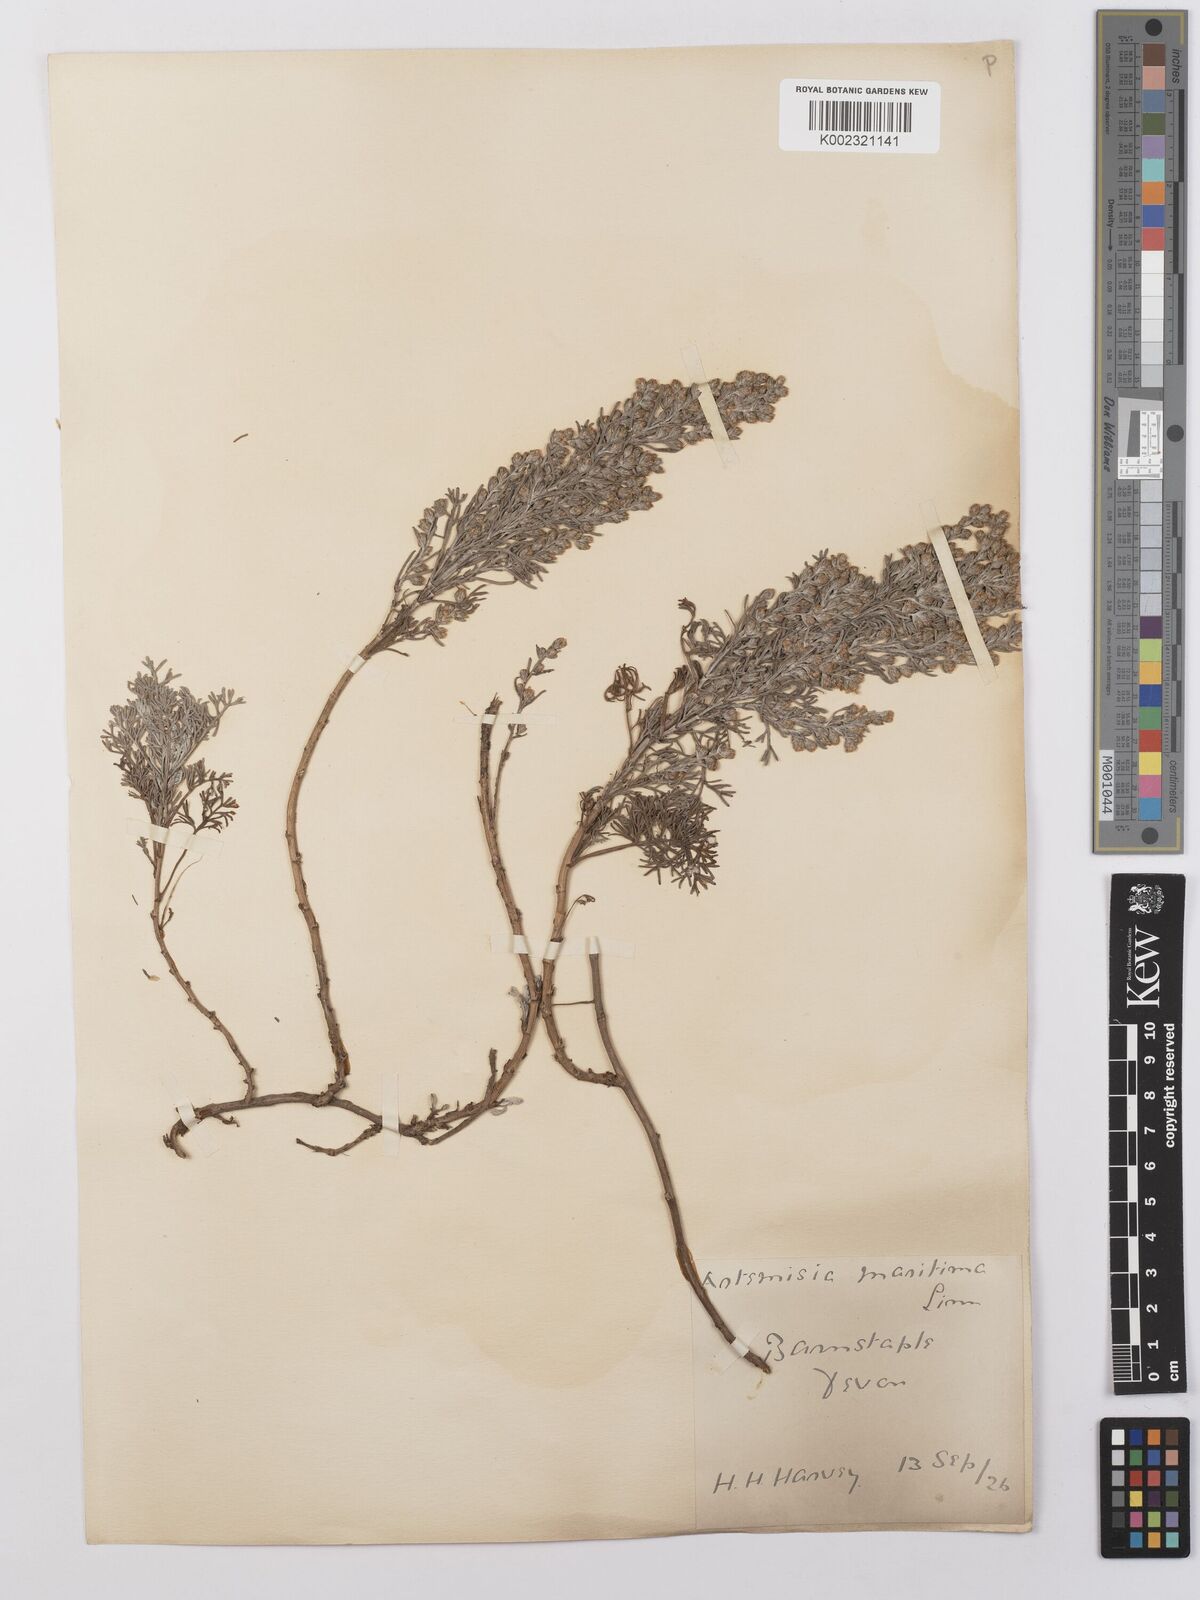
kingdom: Plantae
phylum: Tracheophyta
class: Magnoliopsida
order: Asterales
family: Asteraceae
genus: Artemisia
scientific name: Artemisia maritima
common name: Wormseed
